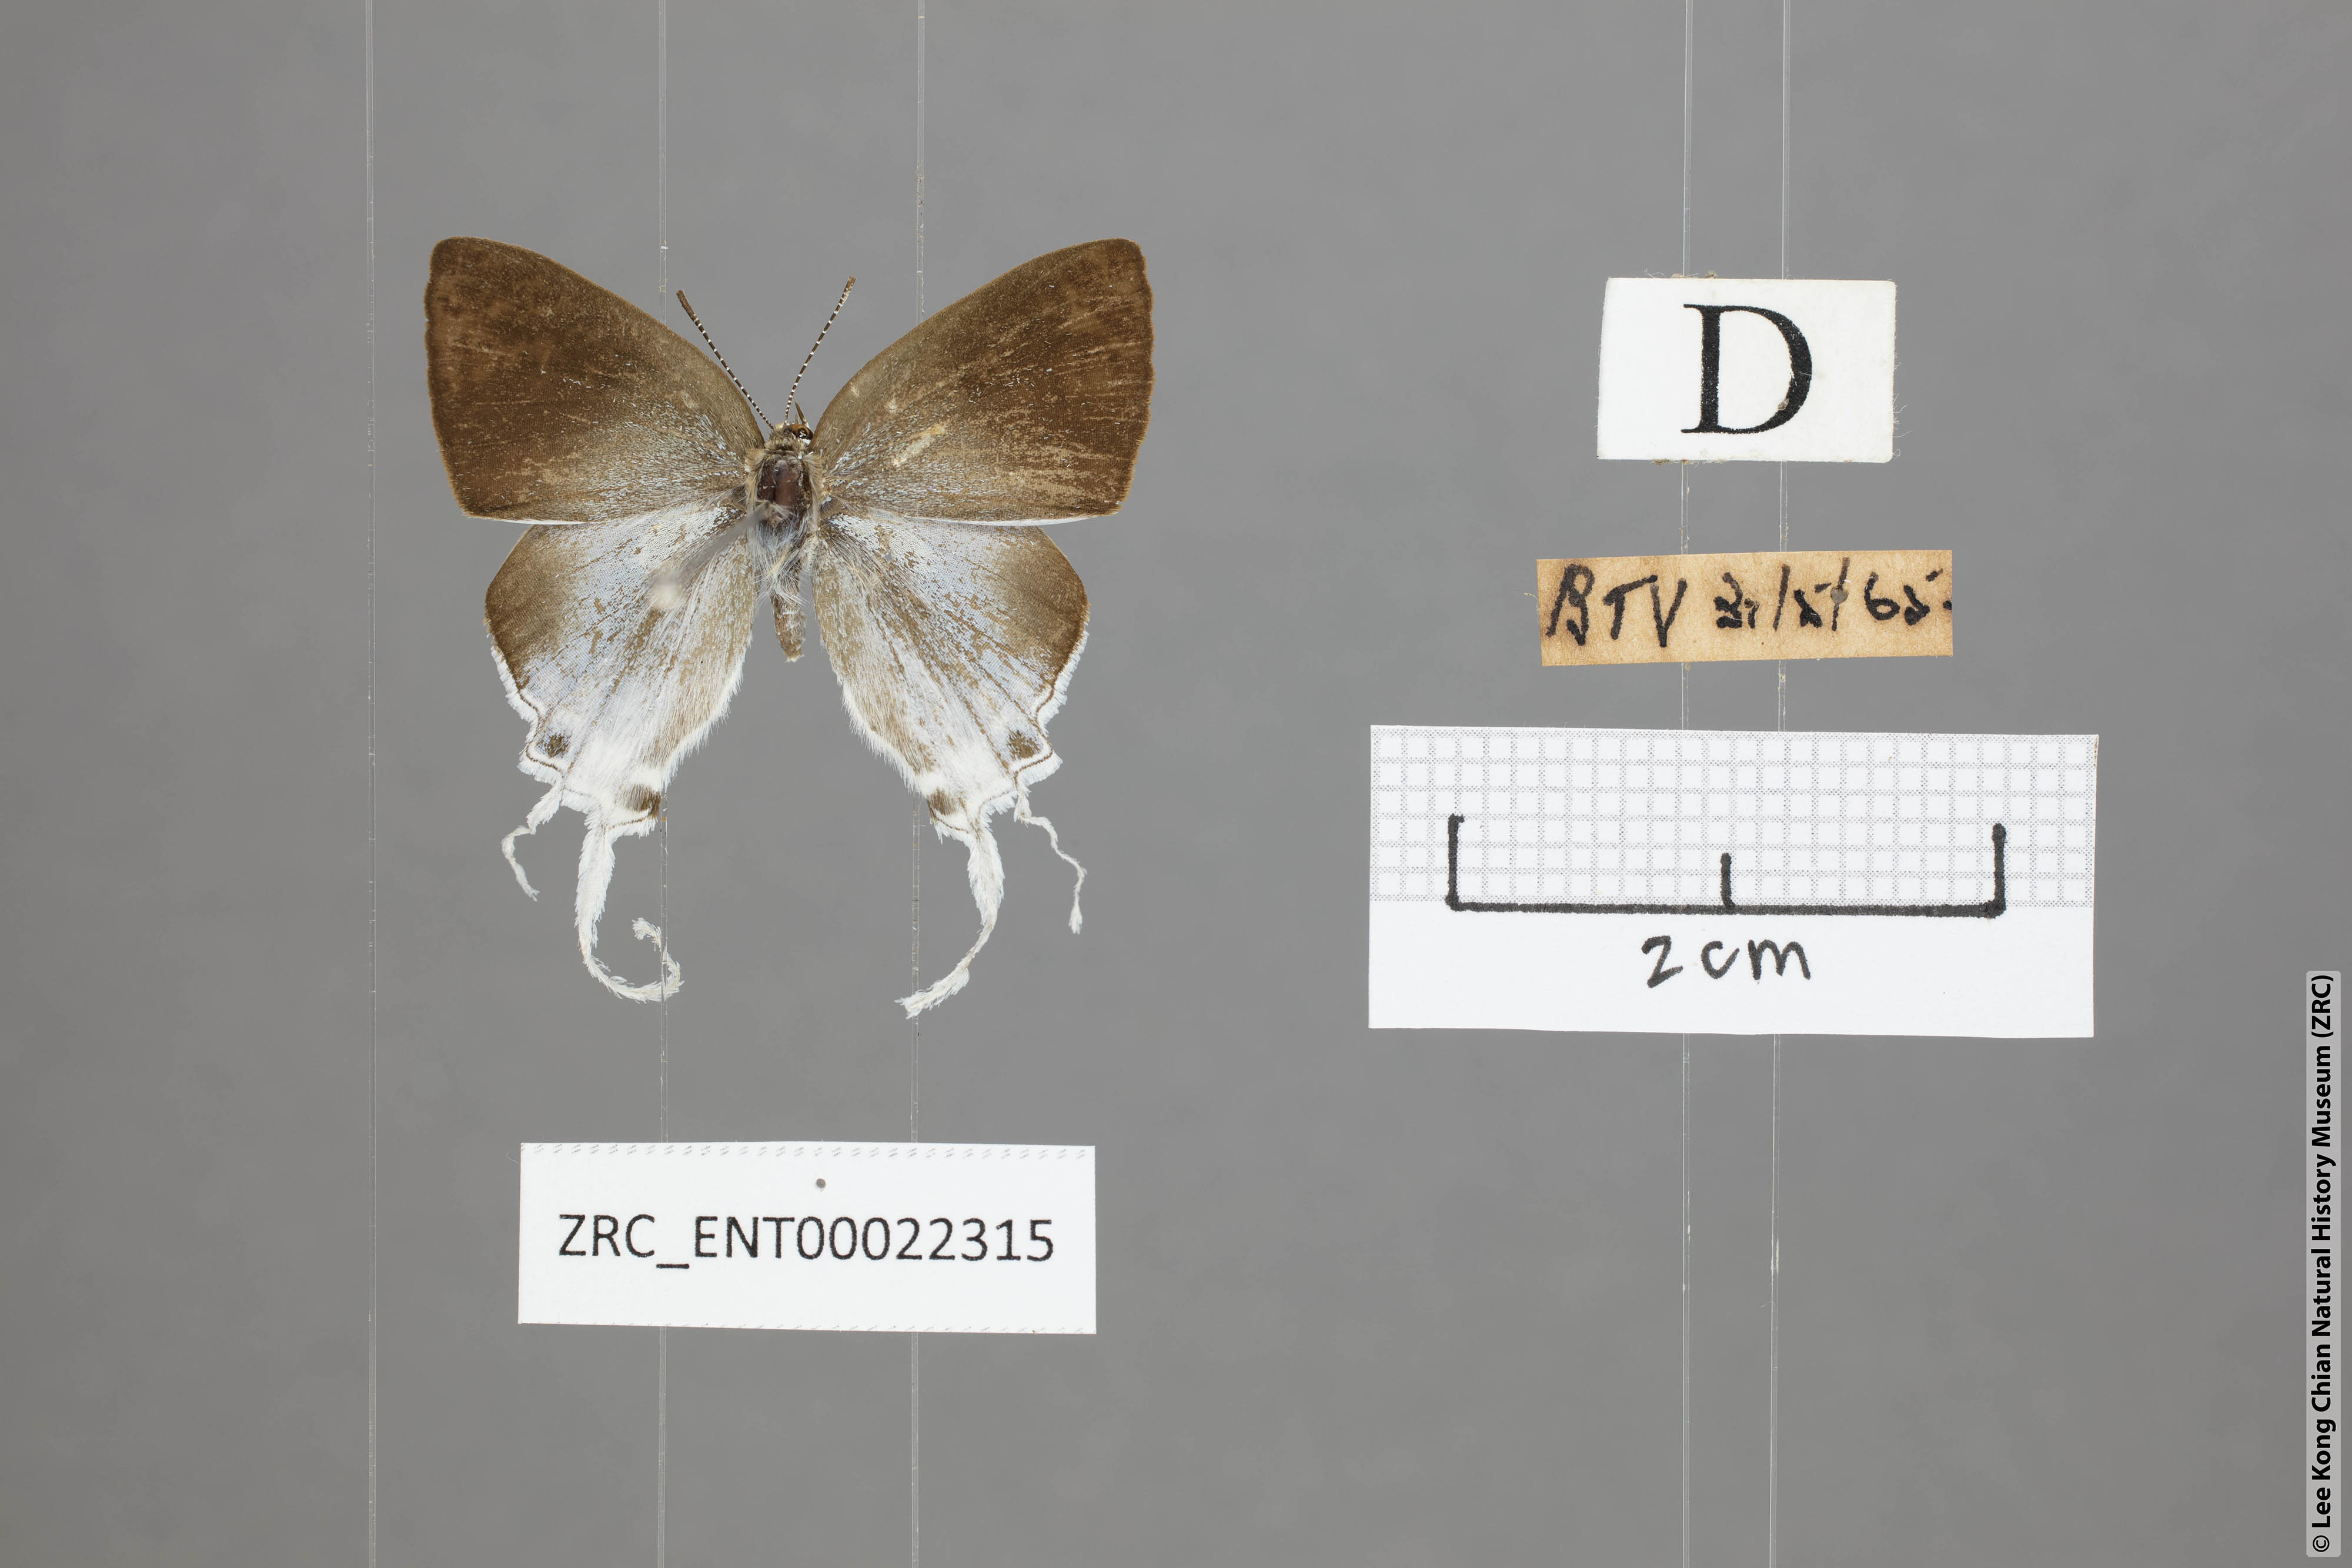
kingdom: Animalia
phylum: Arthropoda
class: Insecta
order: Lepidoptera
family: Lycaenidae
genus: Zeltus
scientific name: Zeltus amasa
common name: Fluffy tit
